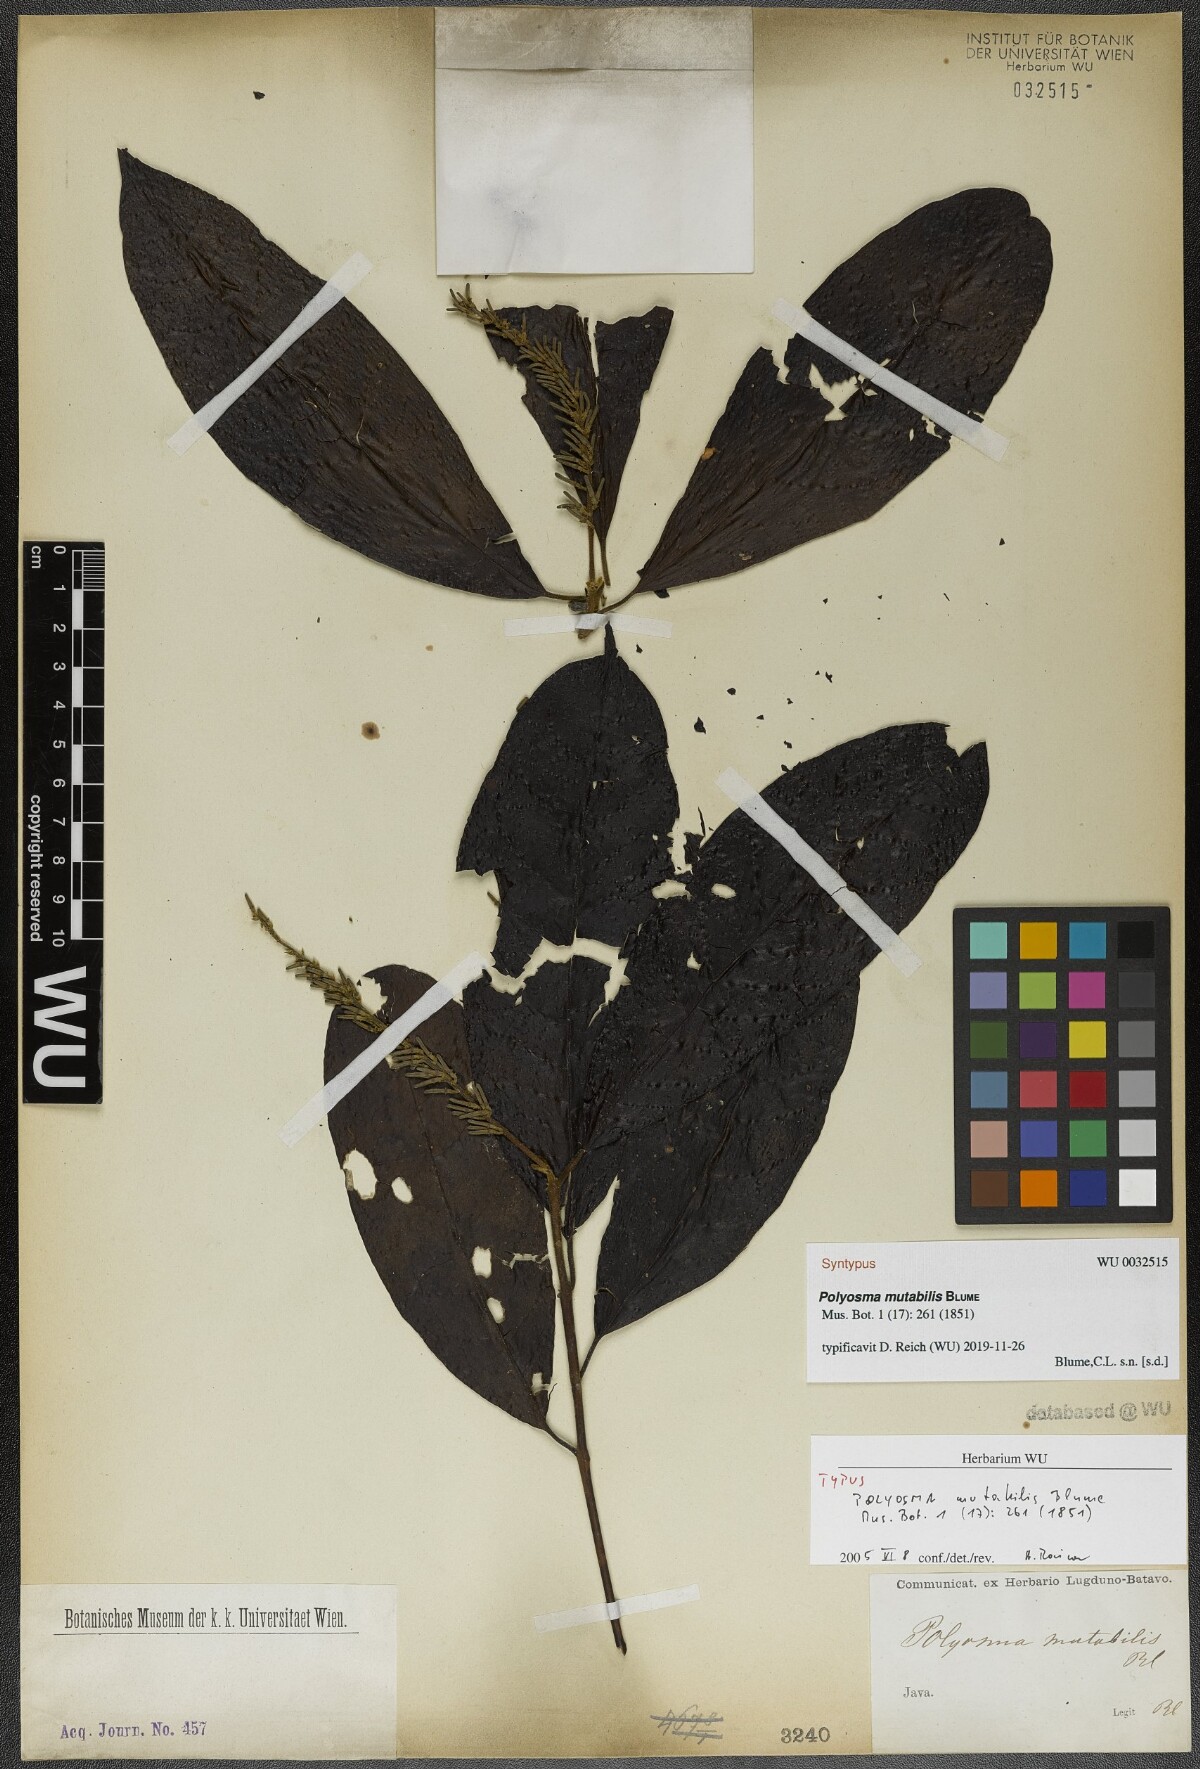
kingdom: Plantae
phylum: Tracheophyta
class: Magnoliopsida
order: Escalloniales
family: Escalloniaceae
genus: Polyosma
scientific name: Polyosma fragrans
